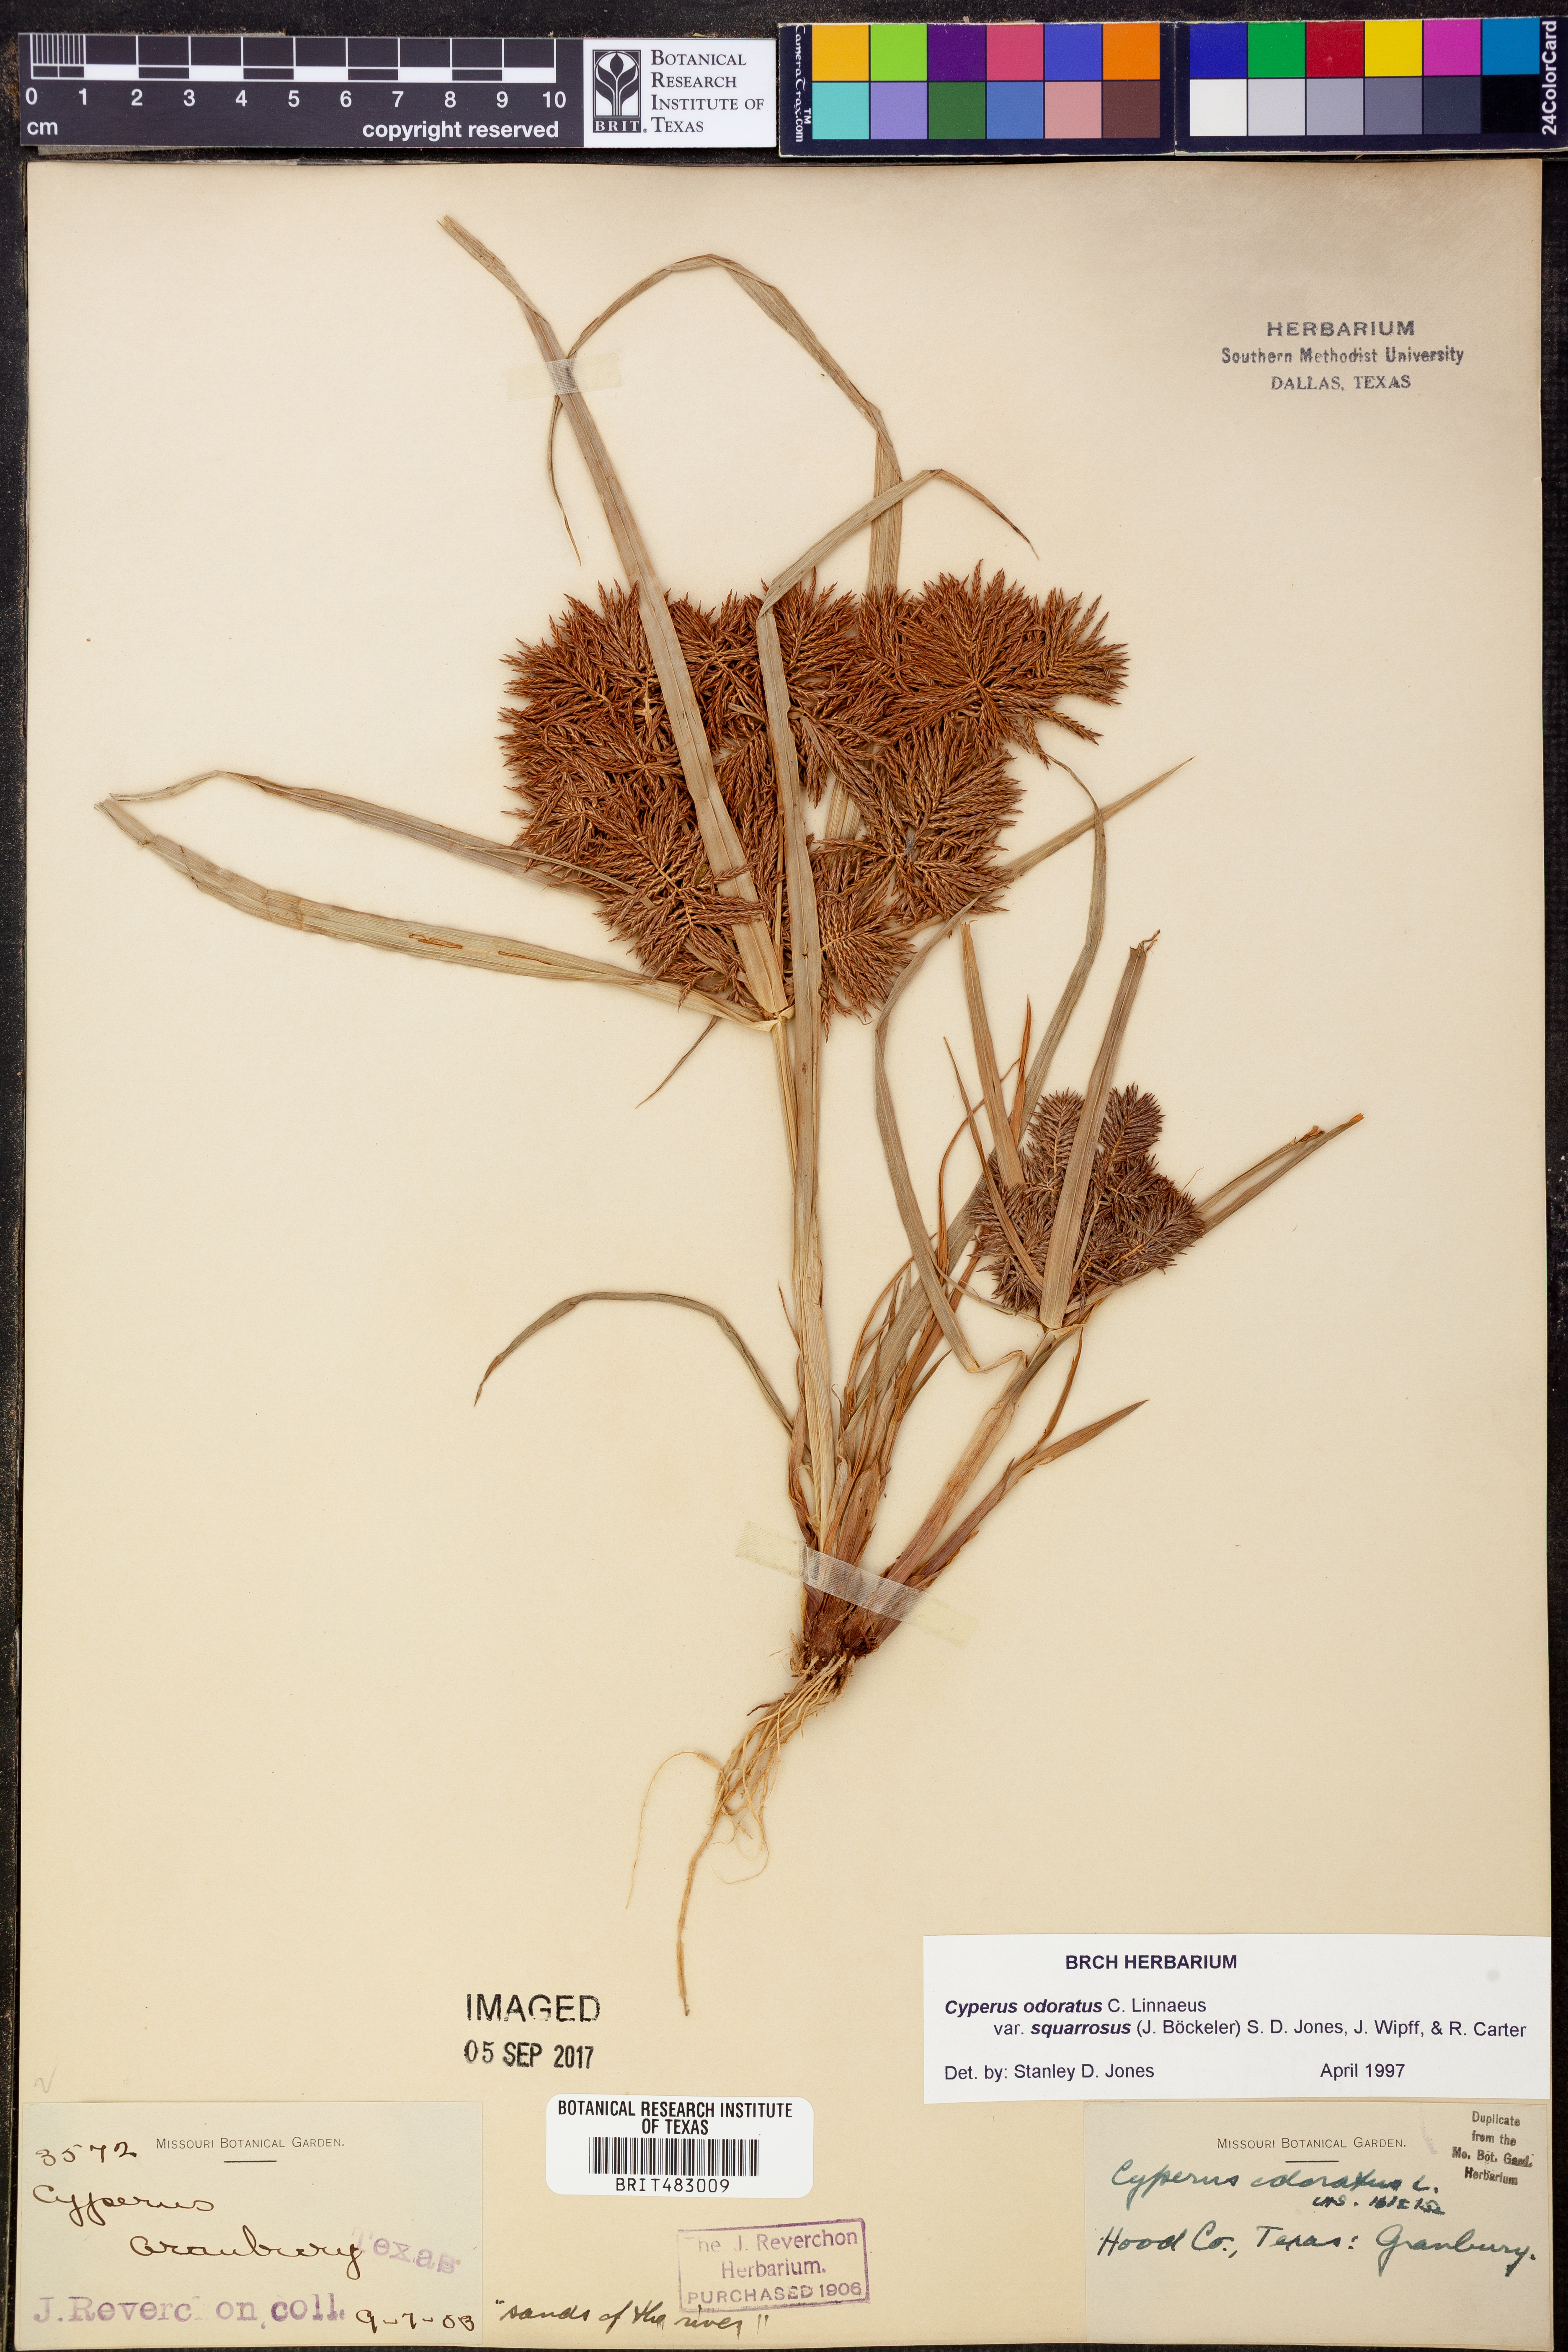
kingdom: Plantae
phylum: Tracheophyta
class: Liliopsida
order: Poales
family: Cyperaceae
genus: Cyperus
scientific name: Cyperus odoratus
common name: Fragrant flatsedge
